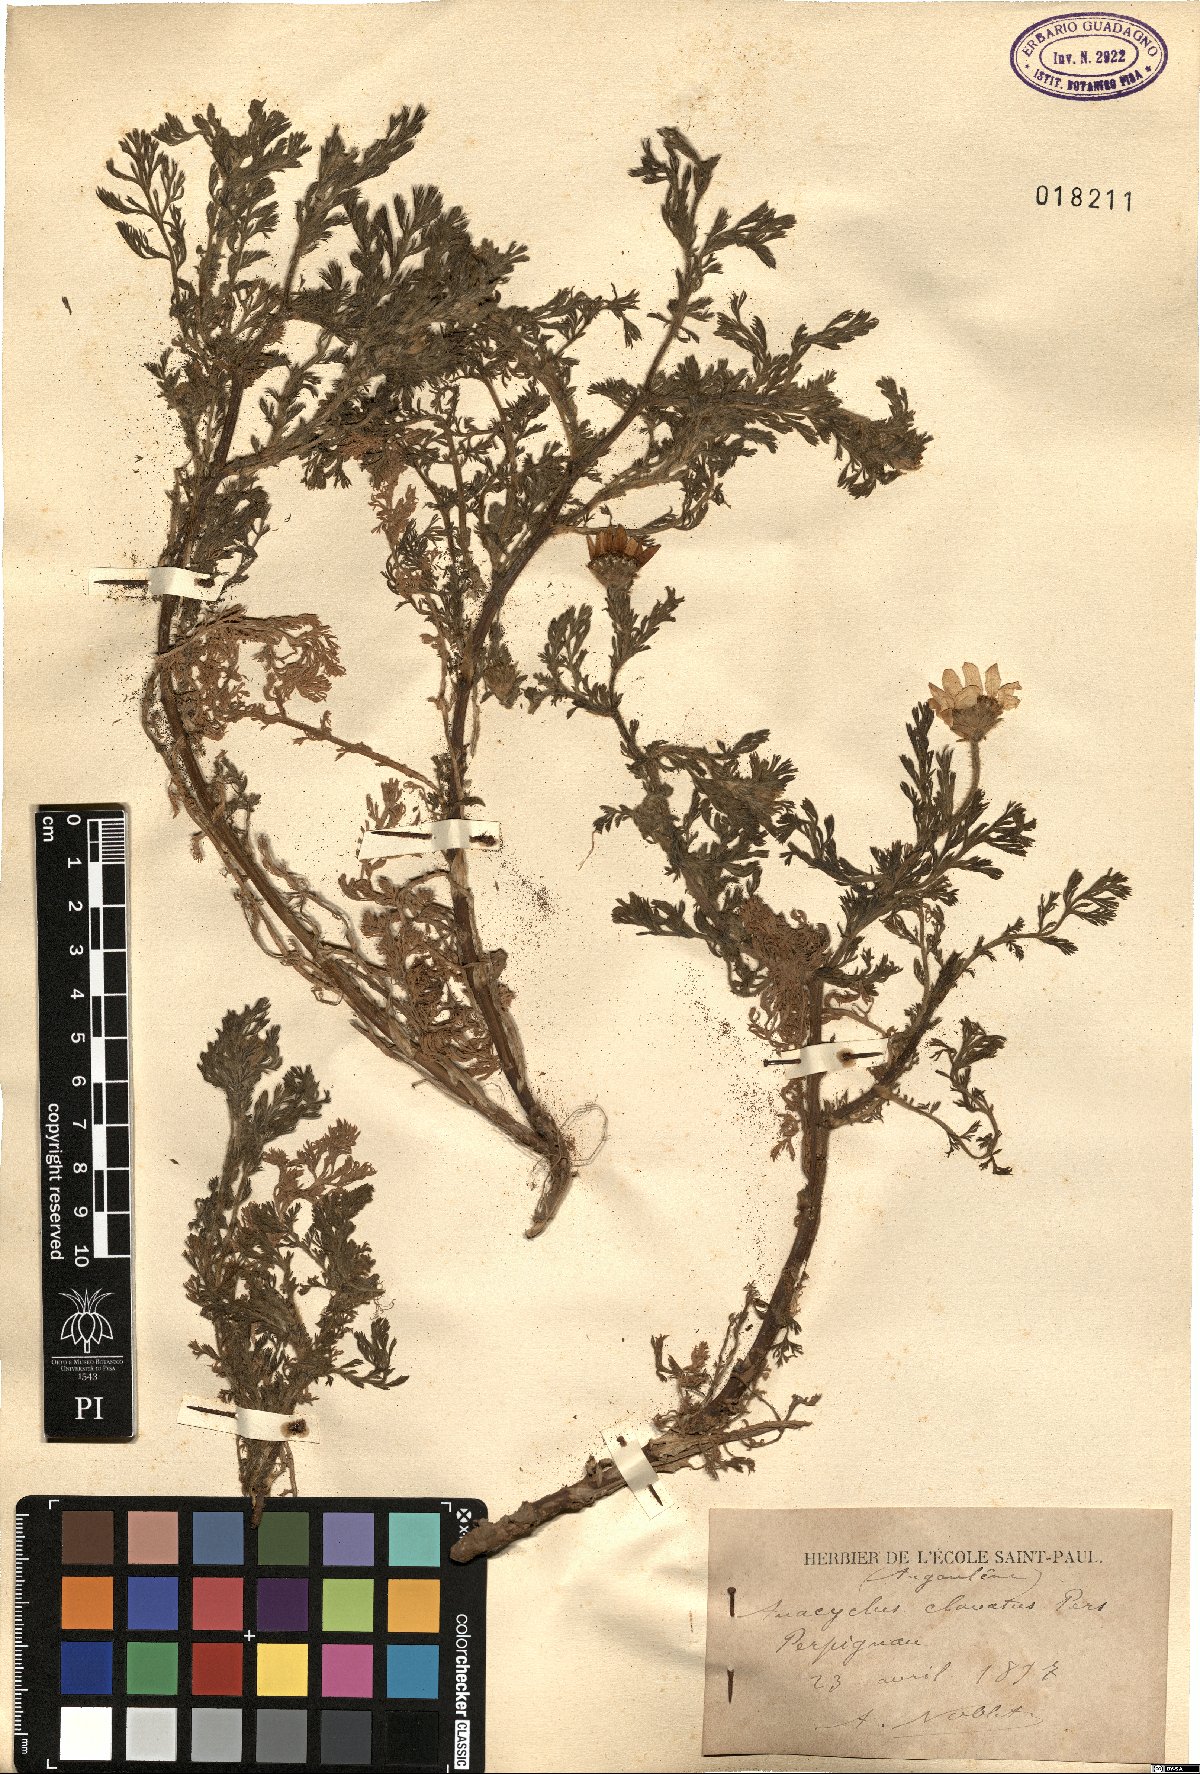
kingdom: Plantae
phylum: Tracheophyta
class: Magnoliopsida
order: Asterales
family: Asteraceae
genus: Anacyclus
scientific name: Anacyclus clavatus
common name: Whitebuttons
